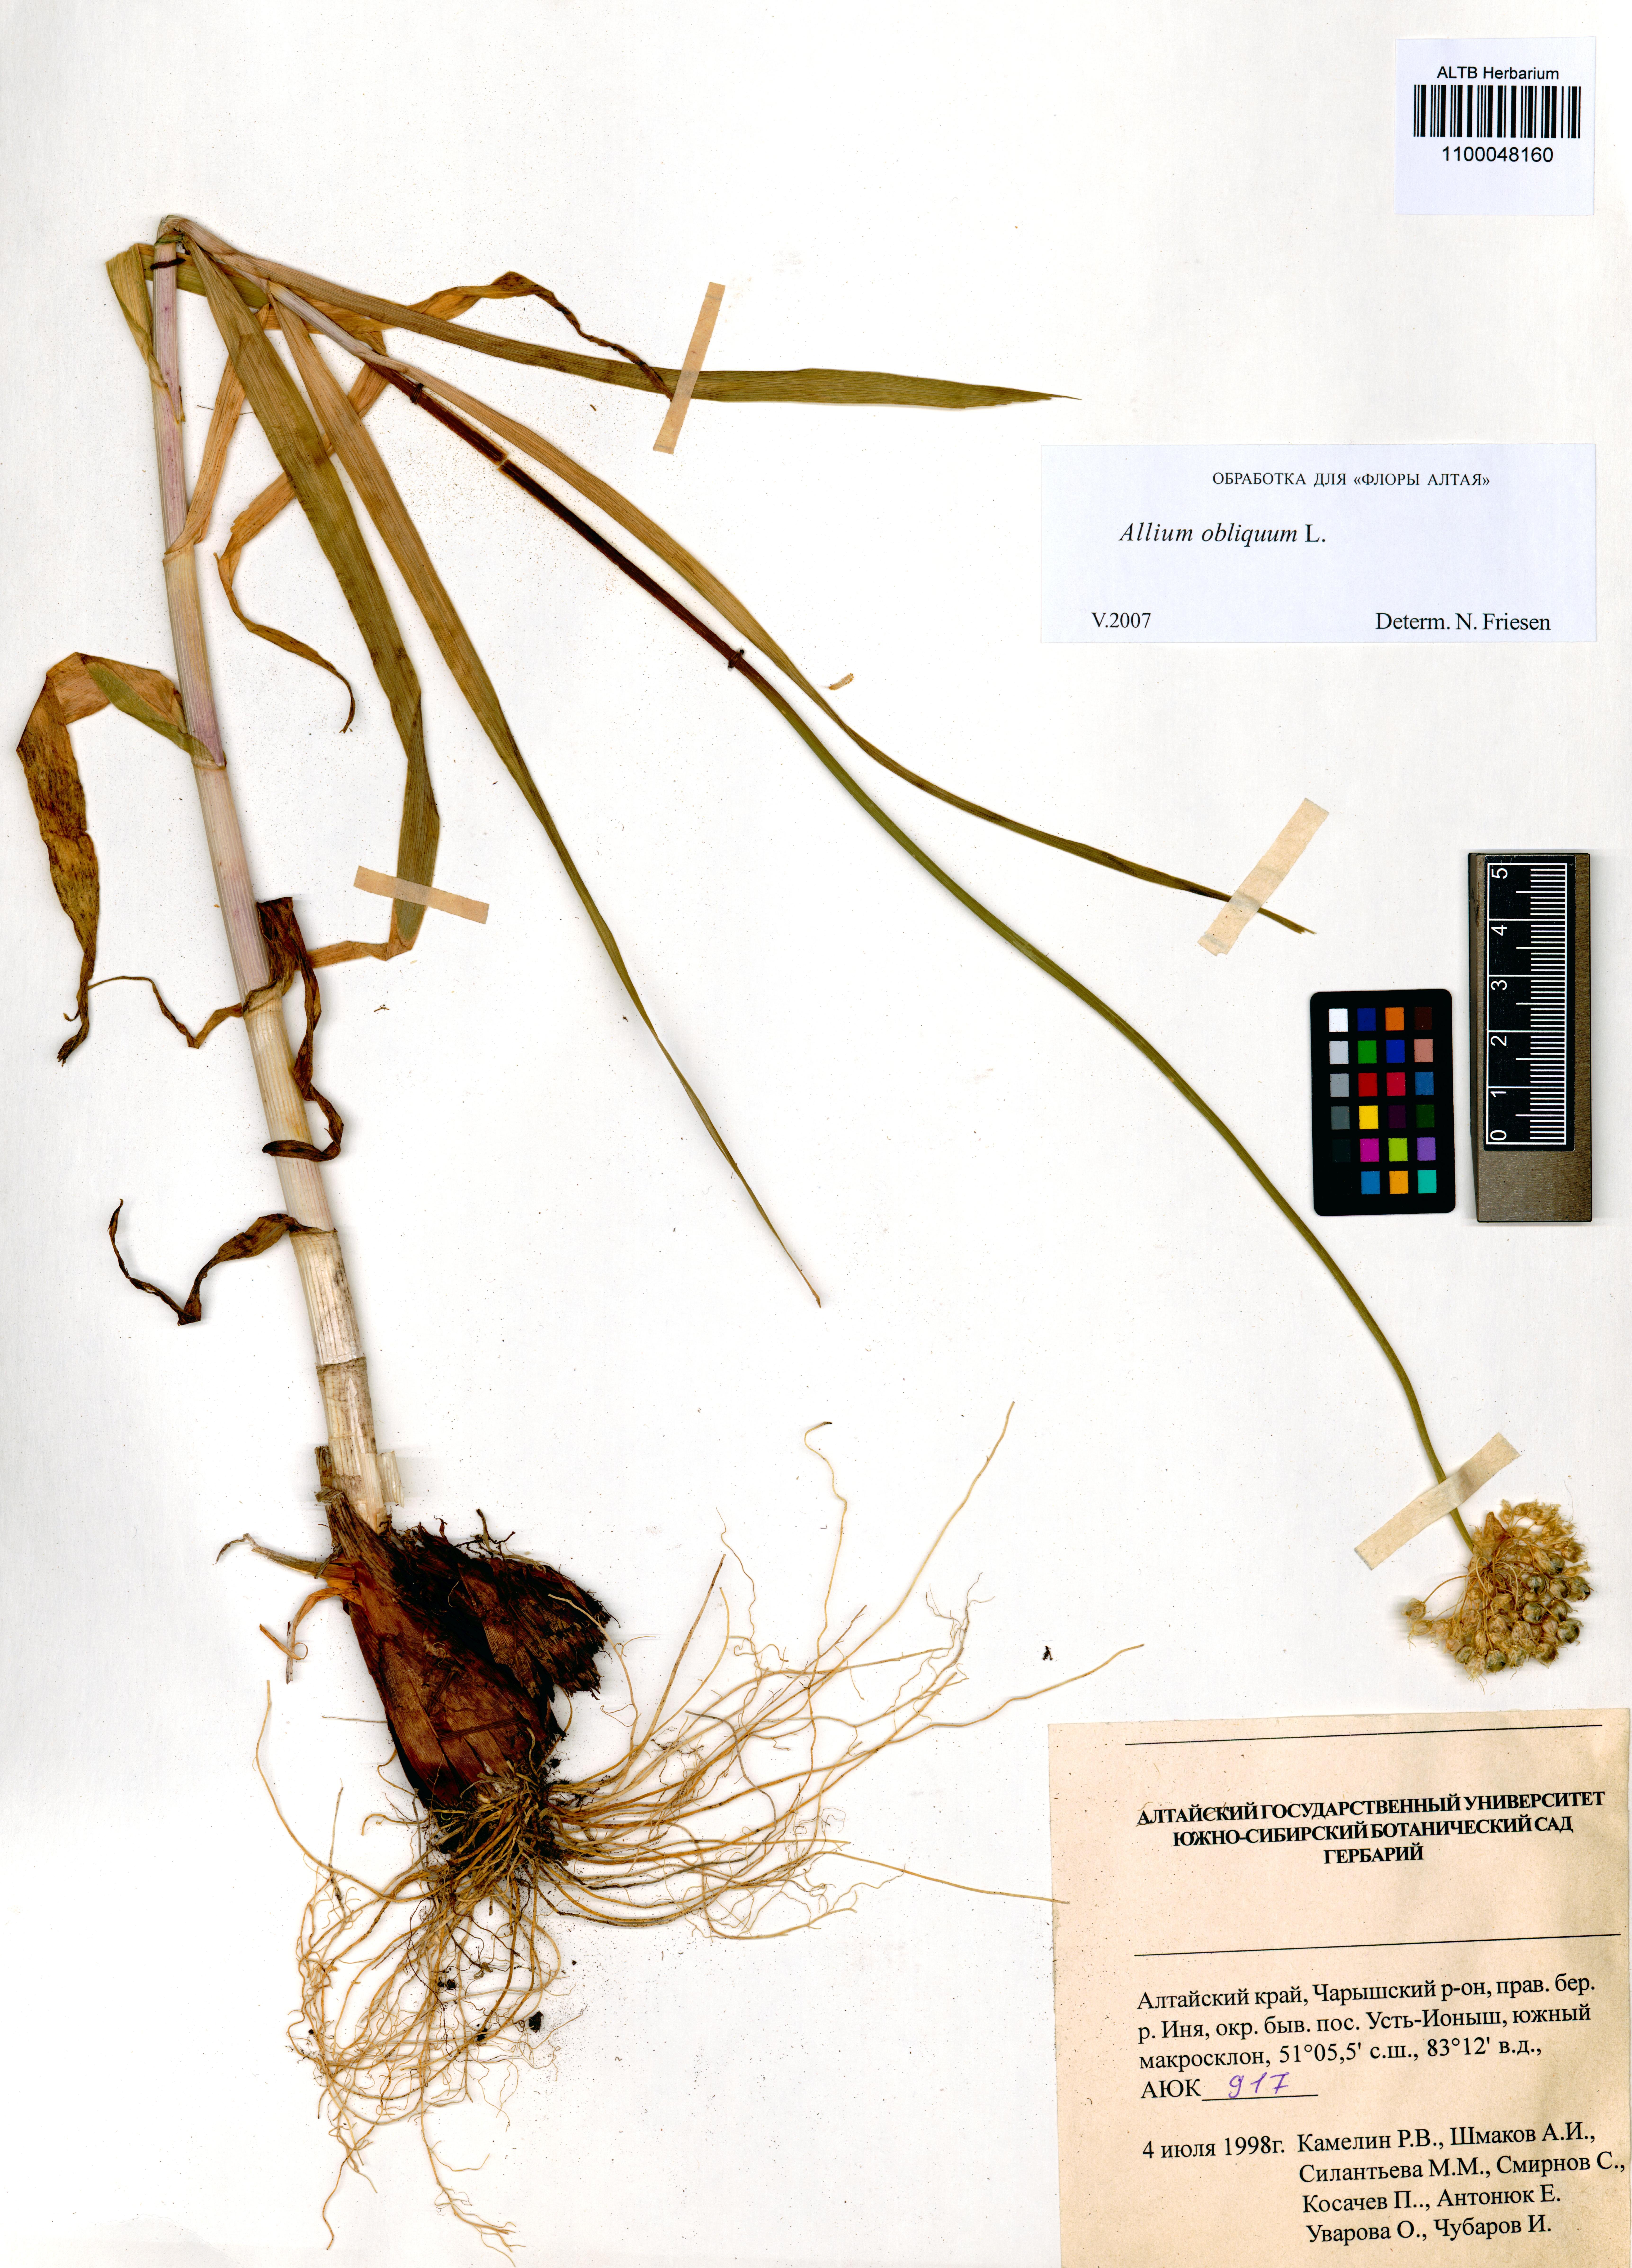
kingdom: Plantae
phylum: Tracheophyta
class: Liliopsida
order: Asparagales
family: Amaryllidaceae
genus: Allium
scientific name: Allium obliquum
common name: Oblique onion
